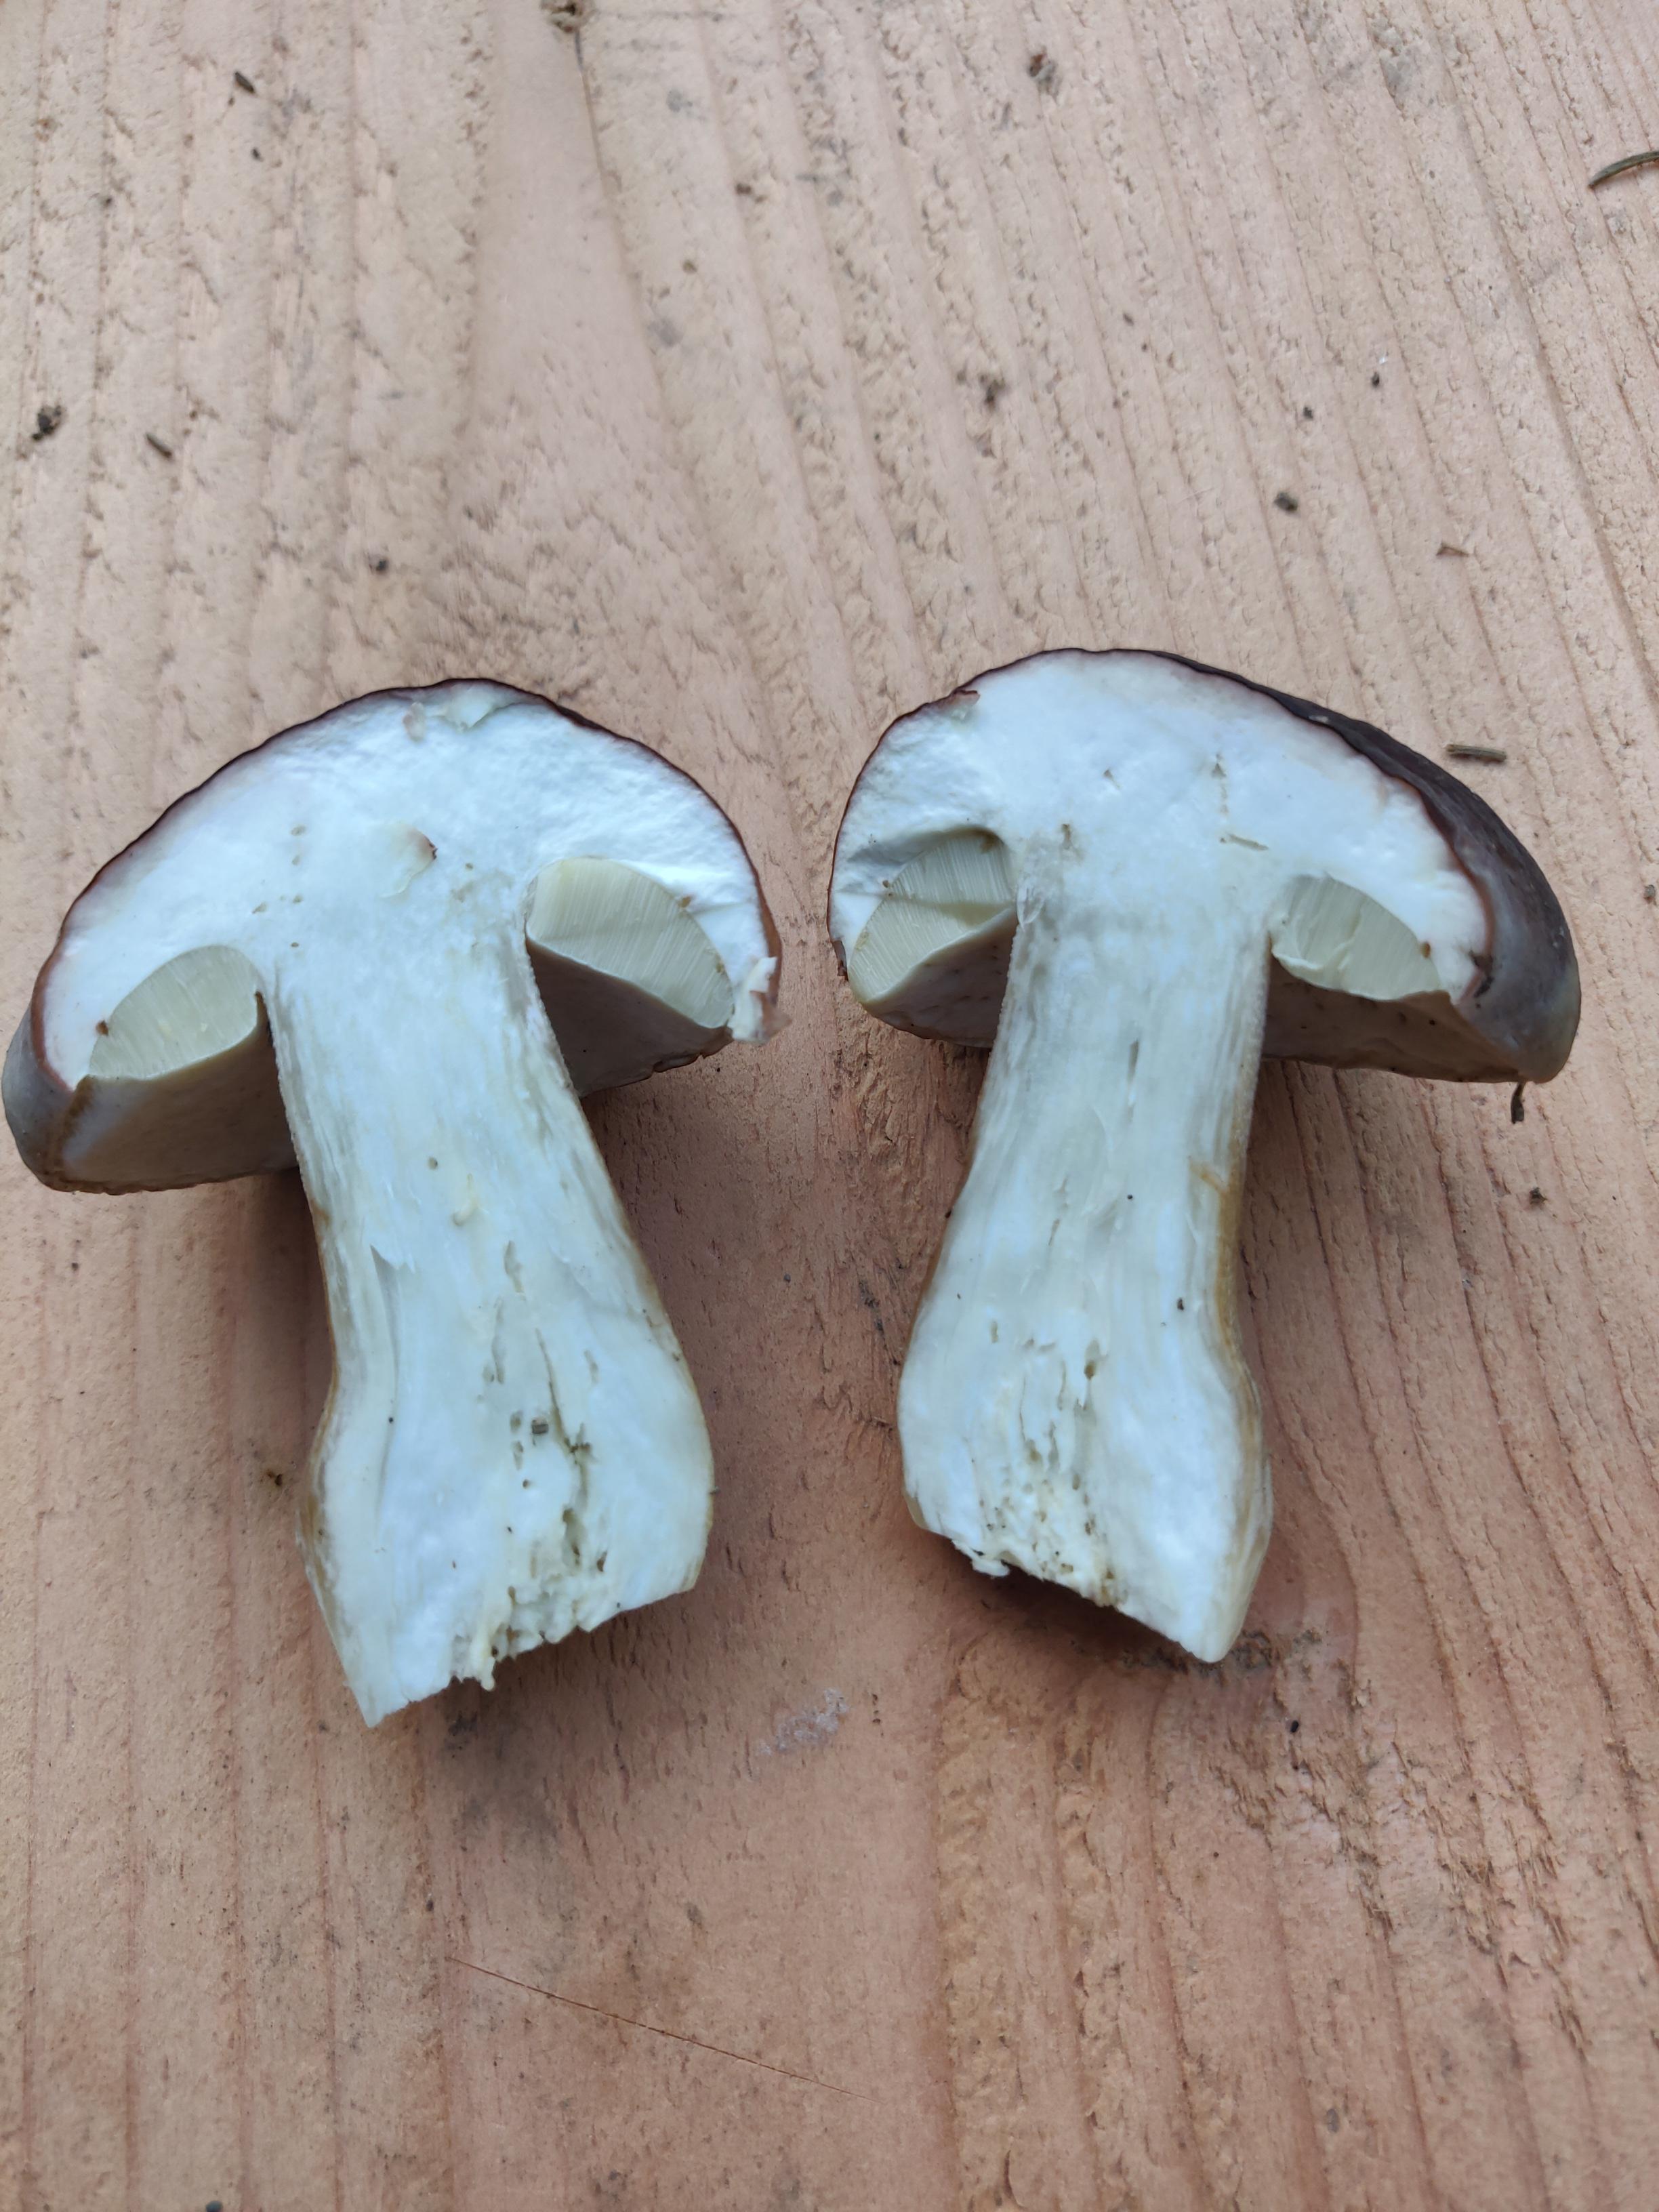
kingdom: Fungi
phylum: Basidiomycota
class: Agaricomycetes
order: Boletales
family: Boletaceae
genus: Boletus
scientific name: Boletus edulis
